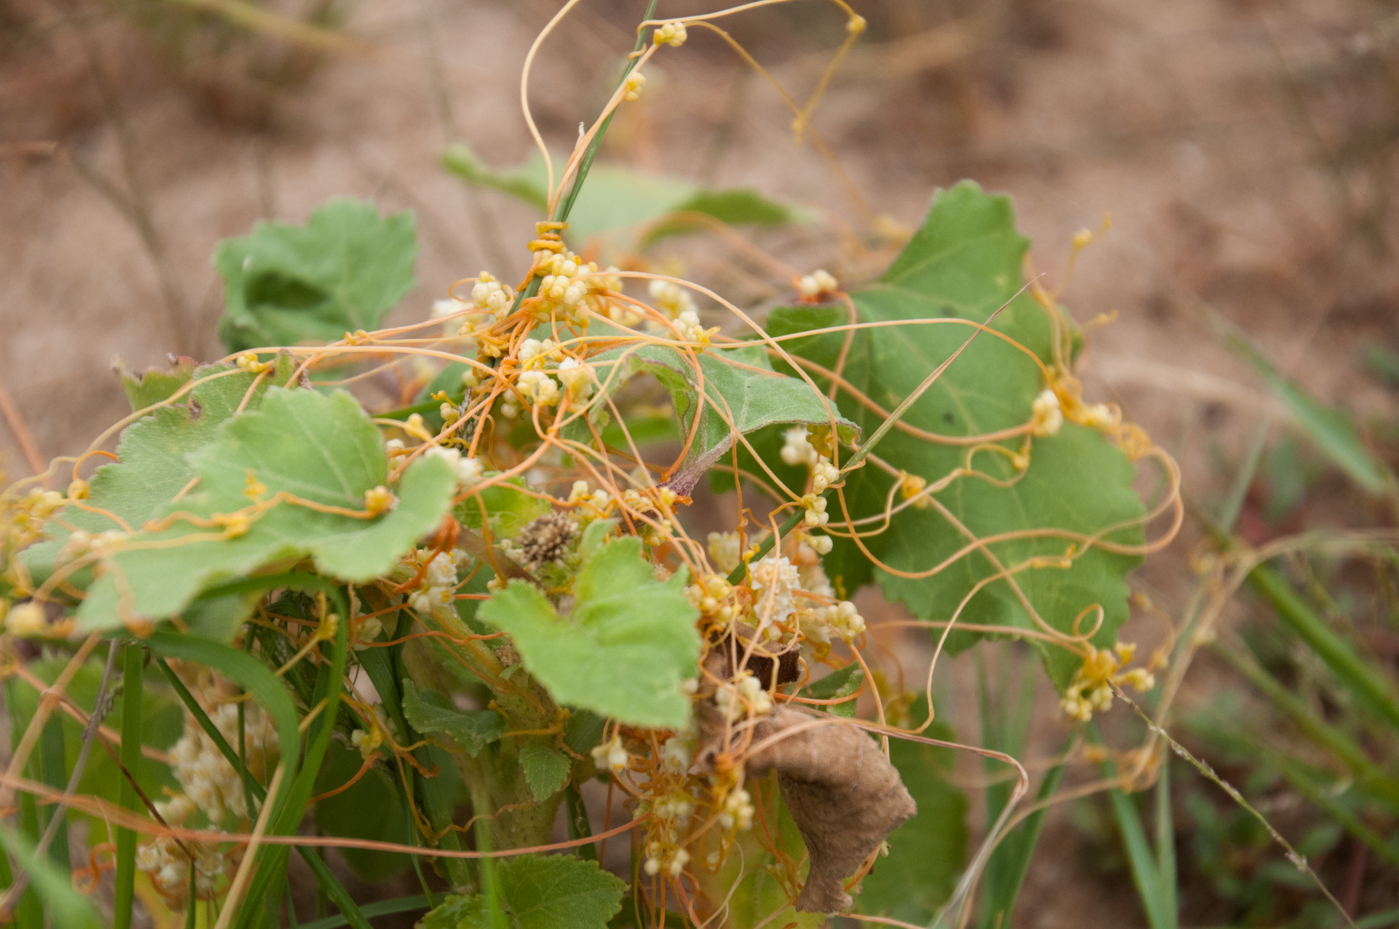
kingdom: Plantae
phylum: Tracheophyta
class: Magnoliopsida
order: Solanales
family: Convolvulaceae
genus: Cuscuta
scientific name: Cuscuta europaea
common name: Greater dodder
